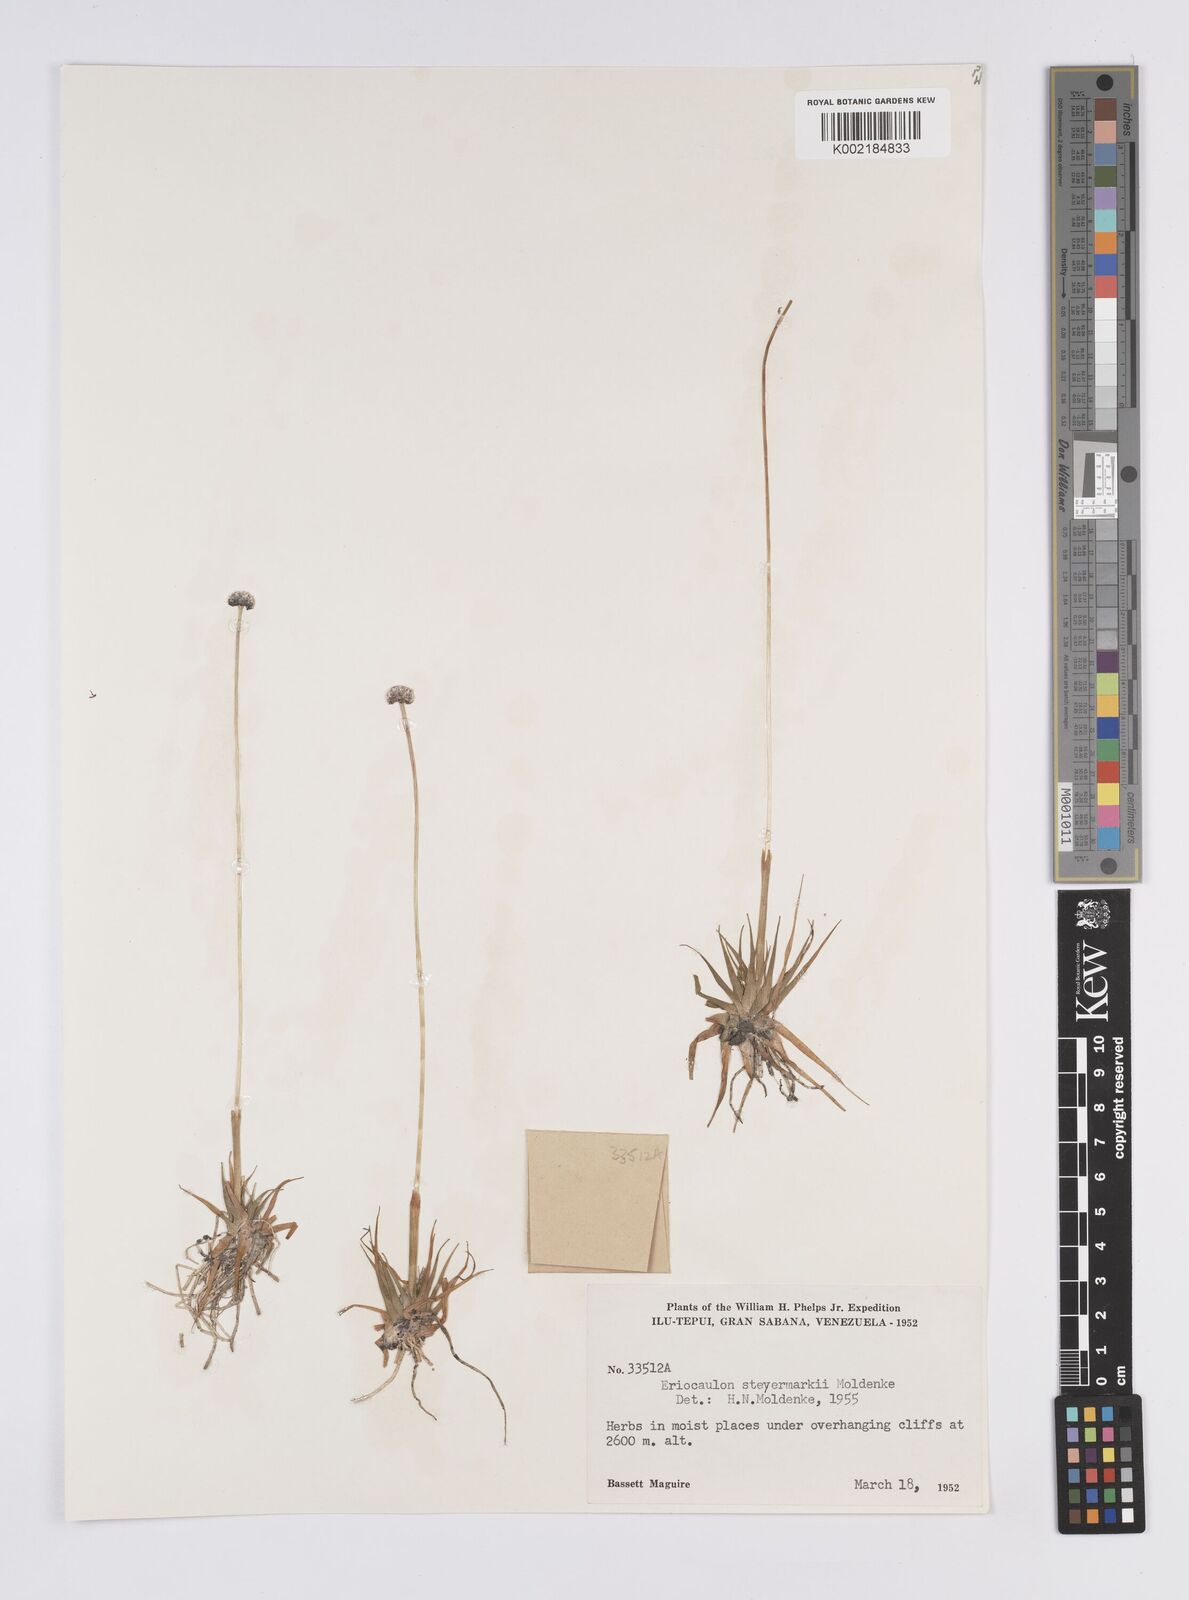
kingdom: Plantae
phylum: Tracheophyta
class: Liliopsida
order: Poales
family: Eriocaulaceae
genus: Eriocaulon
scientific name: Eriocaulon steyermarkii
